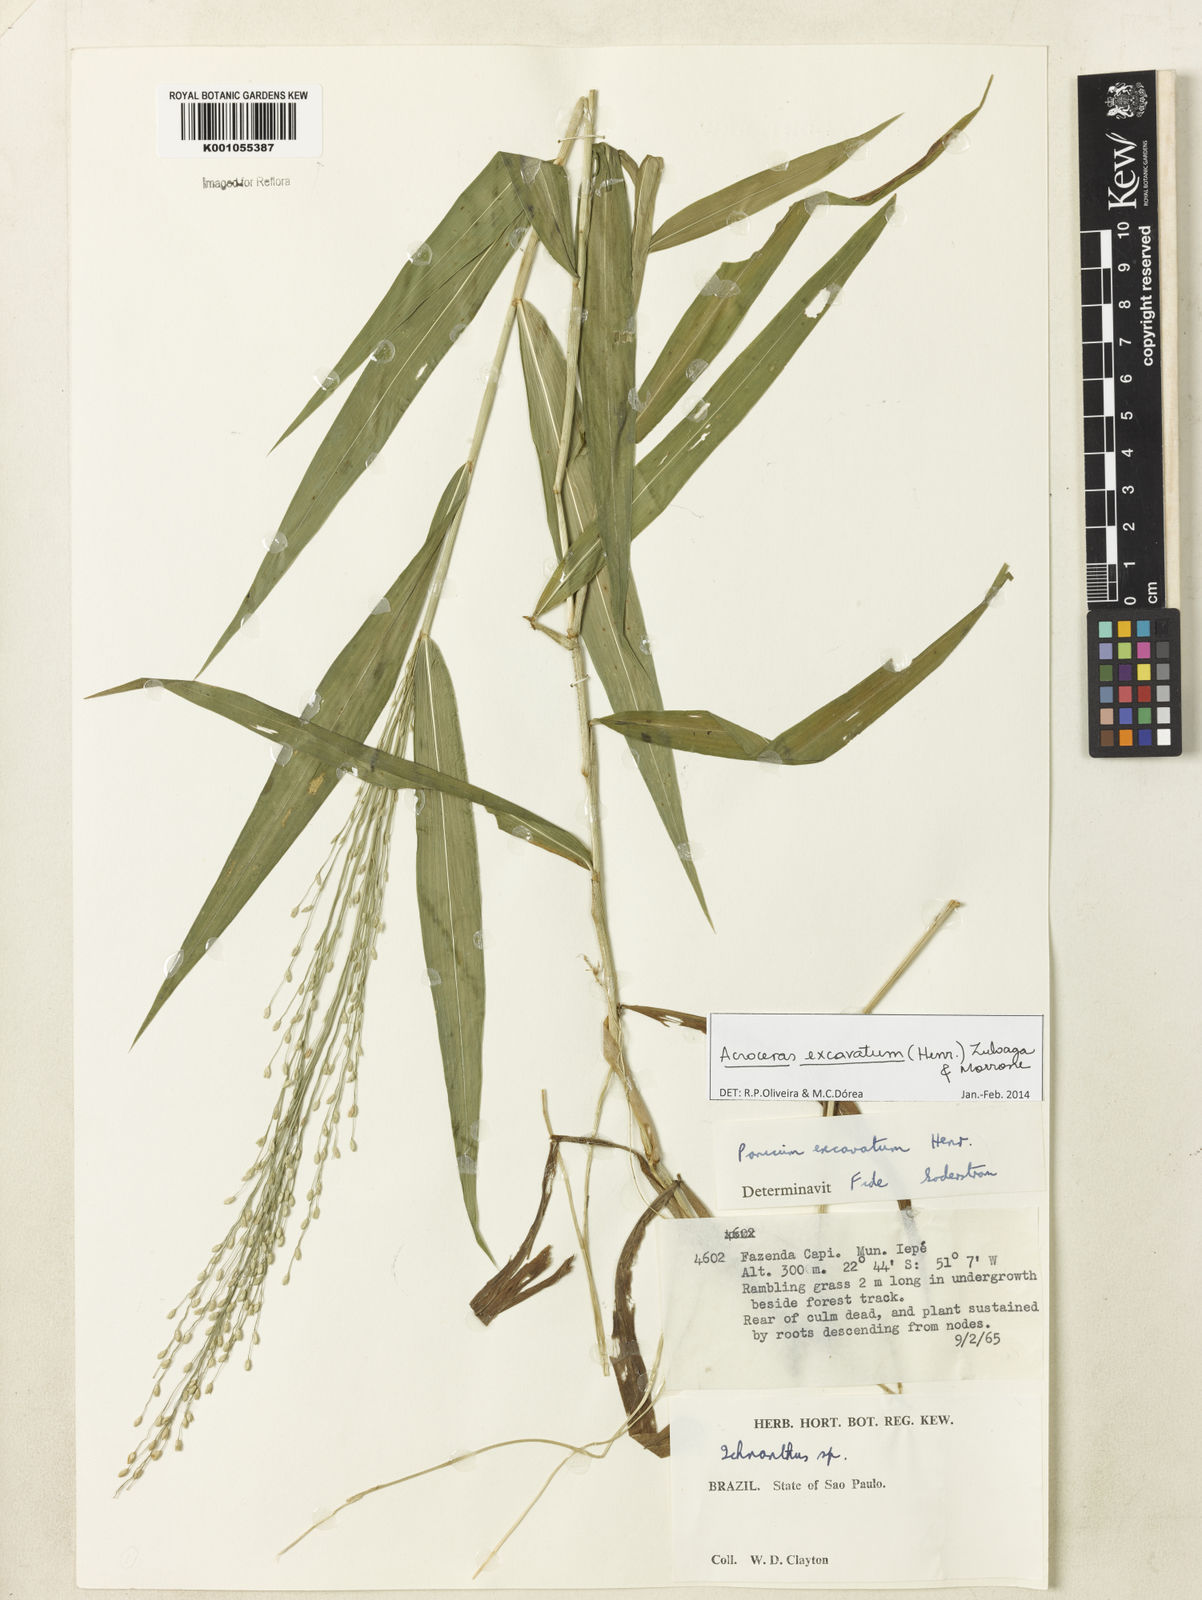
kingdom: Plantae
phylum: Tracheophyta
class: Liliopsida
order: Poales
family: Poaceae
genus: Acroceras
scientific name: Acroceras excavatum
